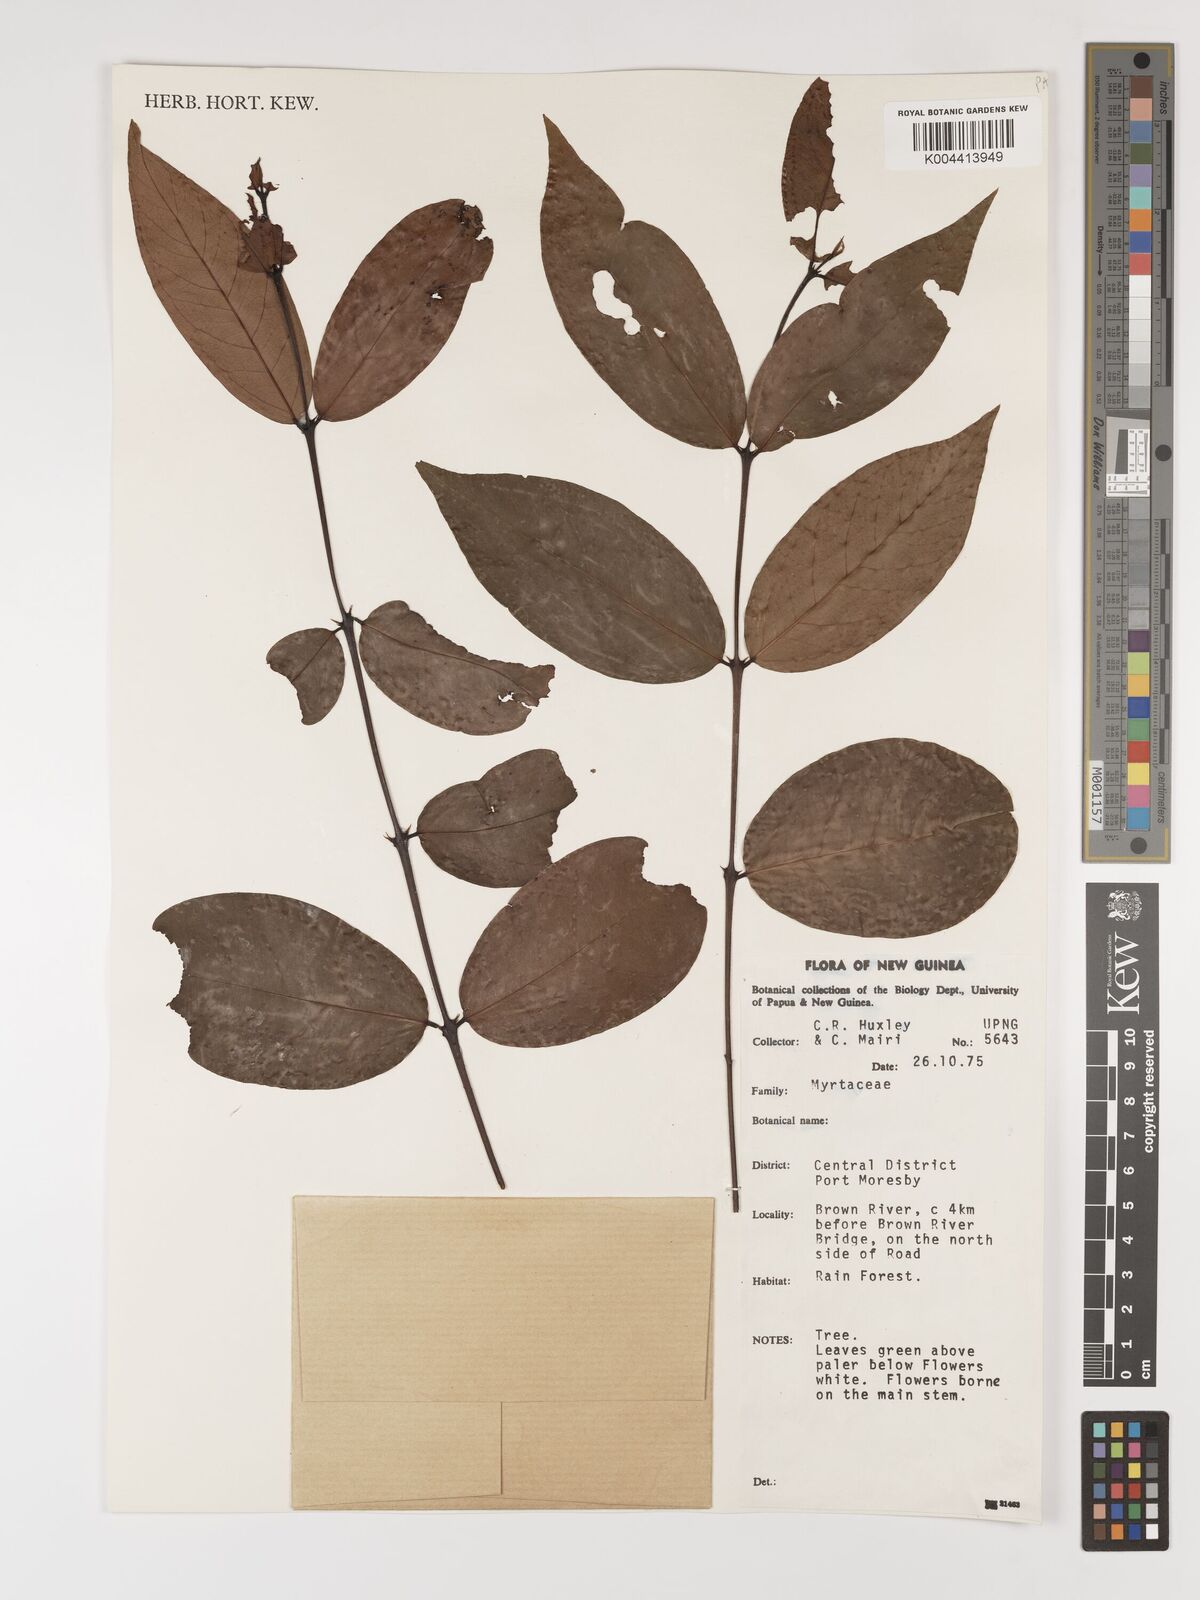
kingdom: Plantae
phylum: Tracheophyta
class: Magnoliopsida
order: Myrtales
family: Myrtaceae
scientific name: Myrtaceae
